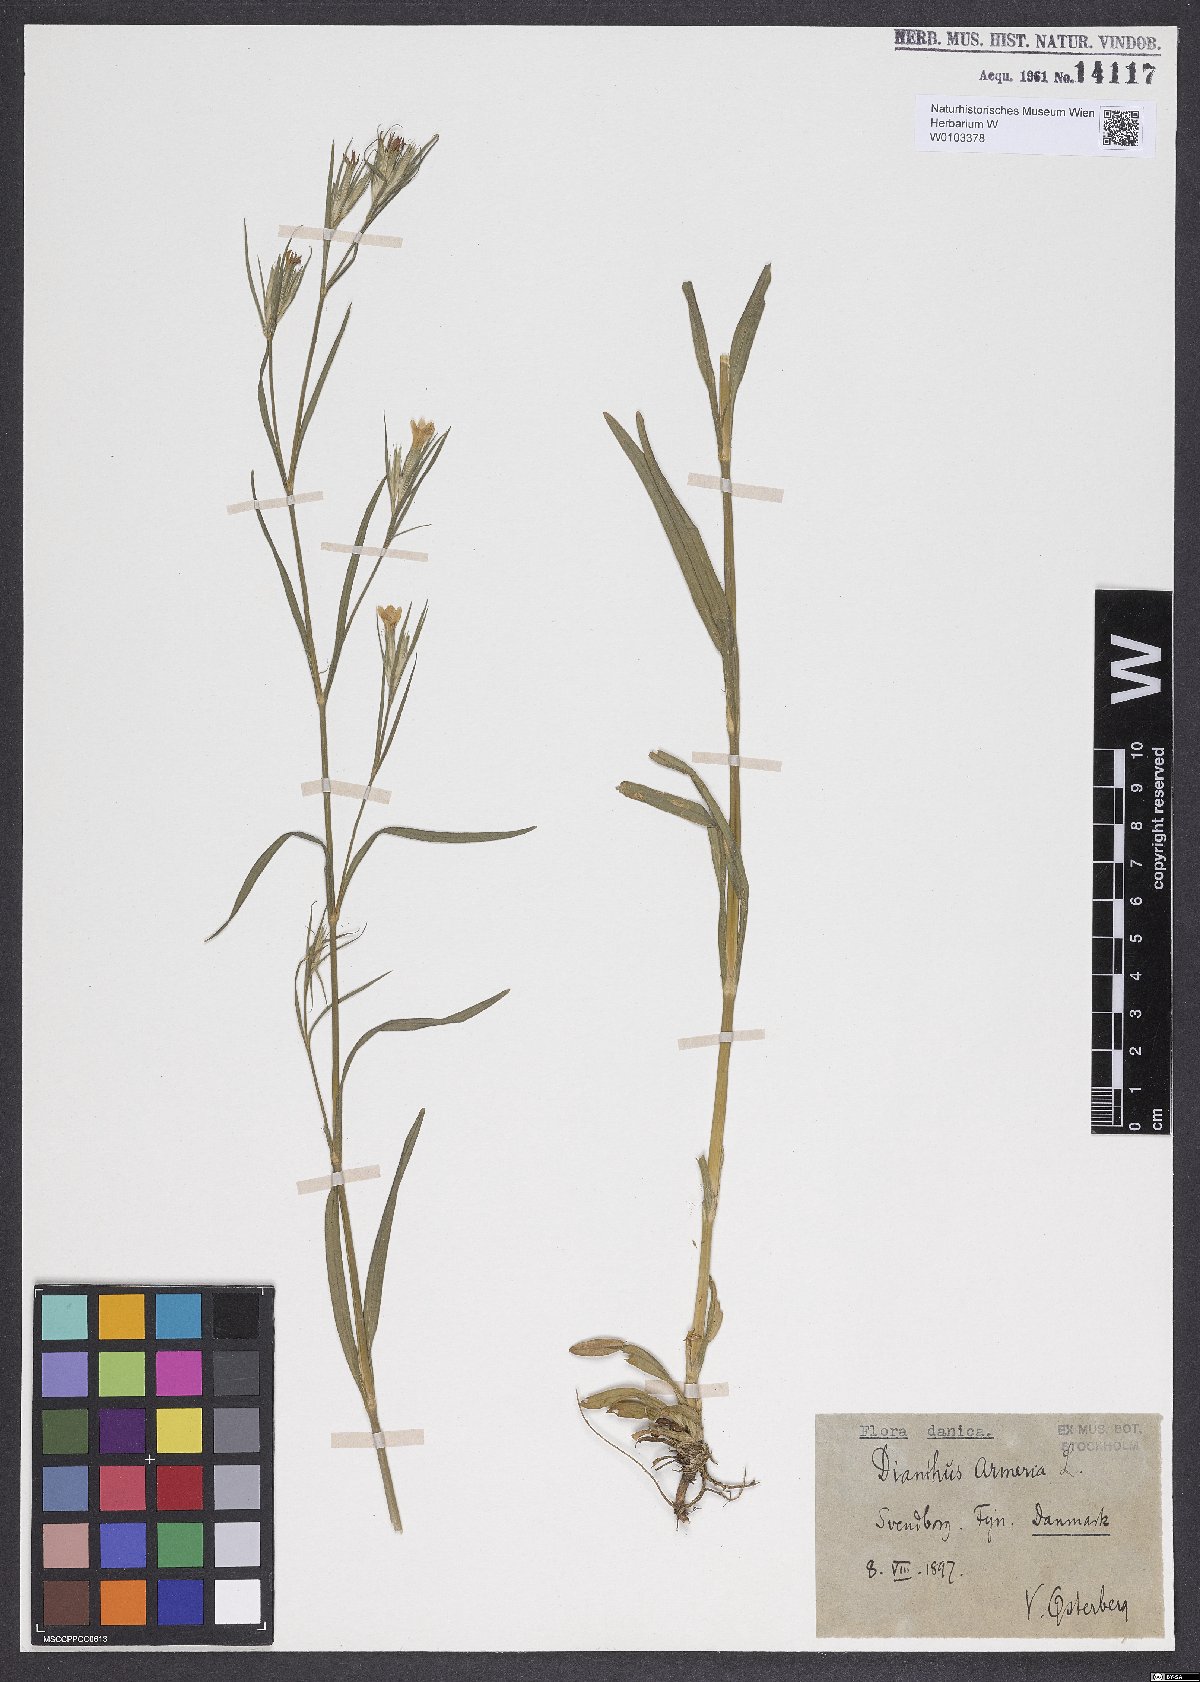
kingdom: Plantae
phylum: Tracheophyta
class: Magnoliopsida
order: Caryophyllales
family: Caryophyllaceae
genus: Dianthus
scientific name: Dianthus armeria
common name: Deptford pink
